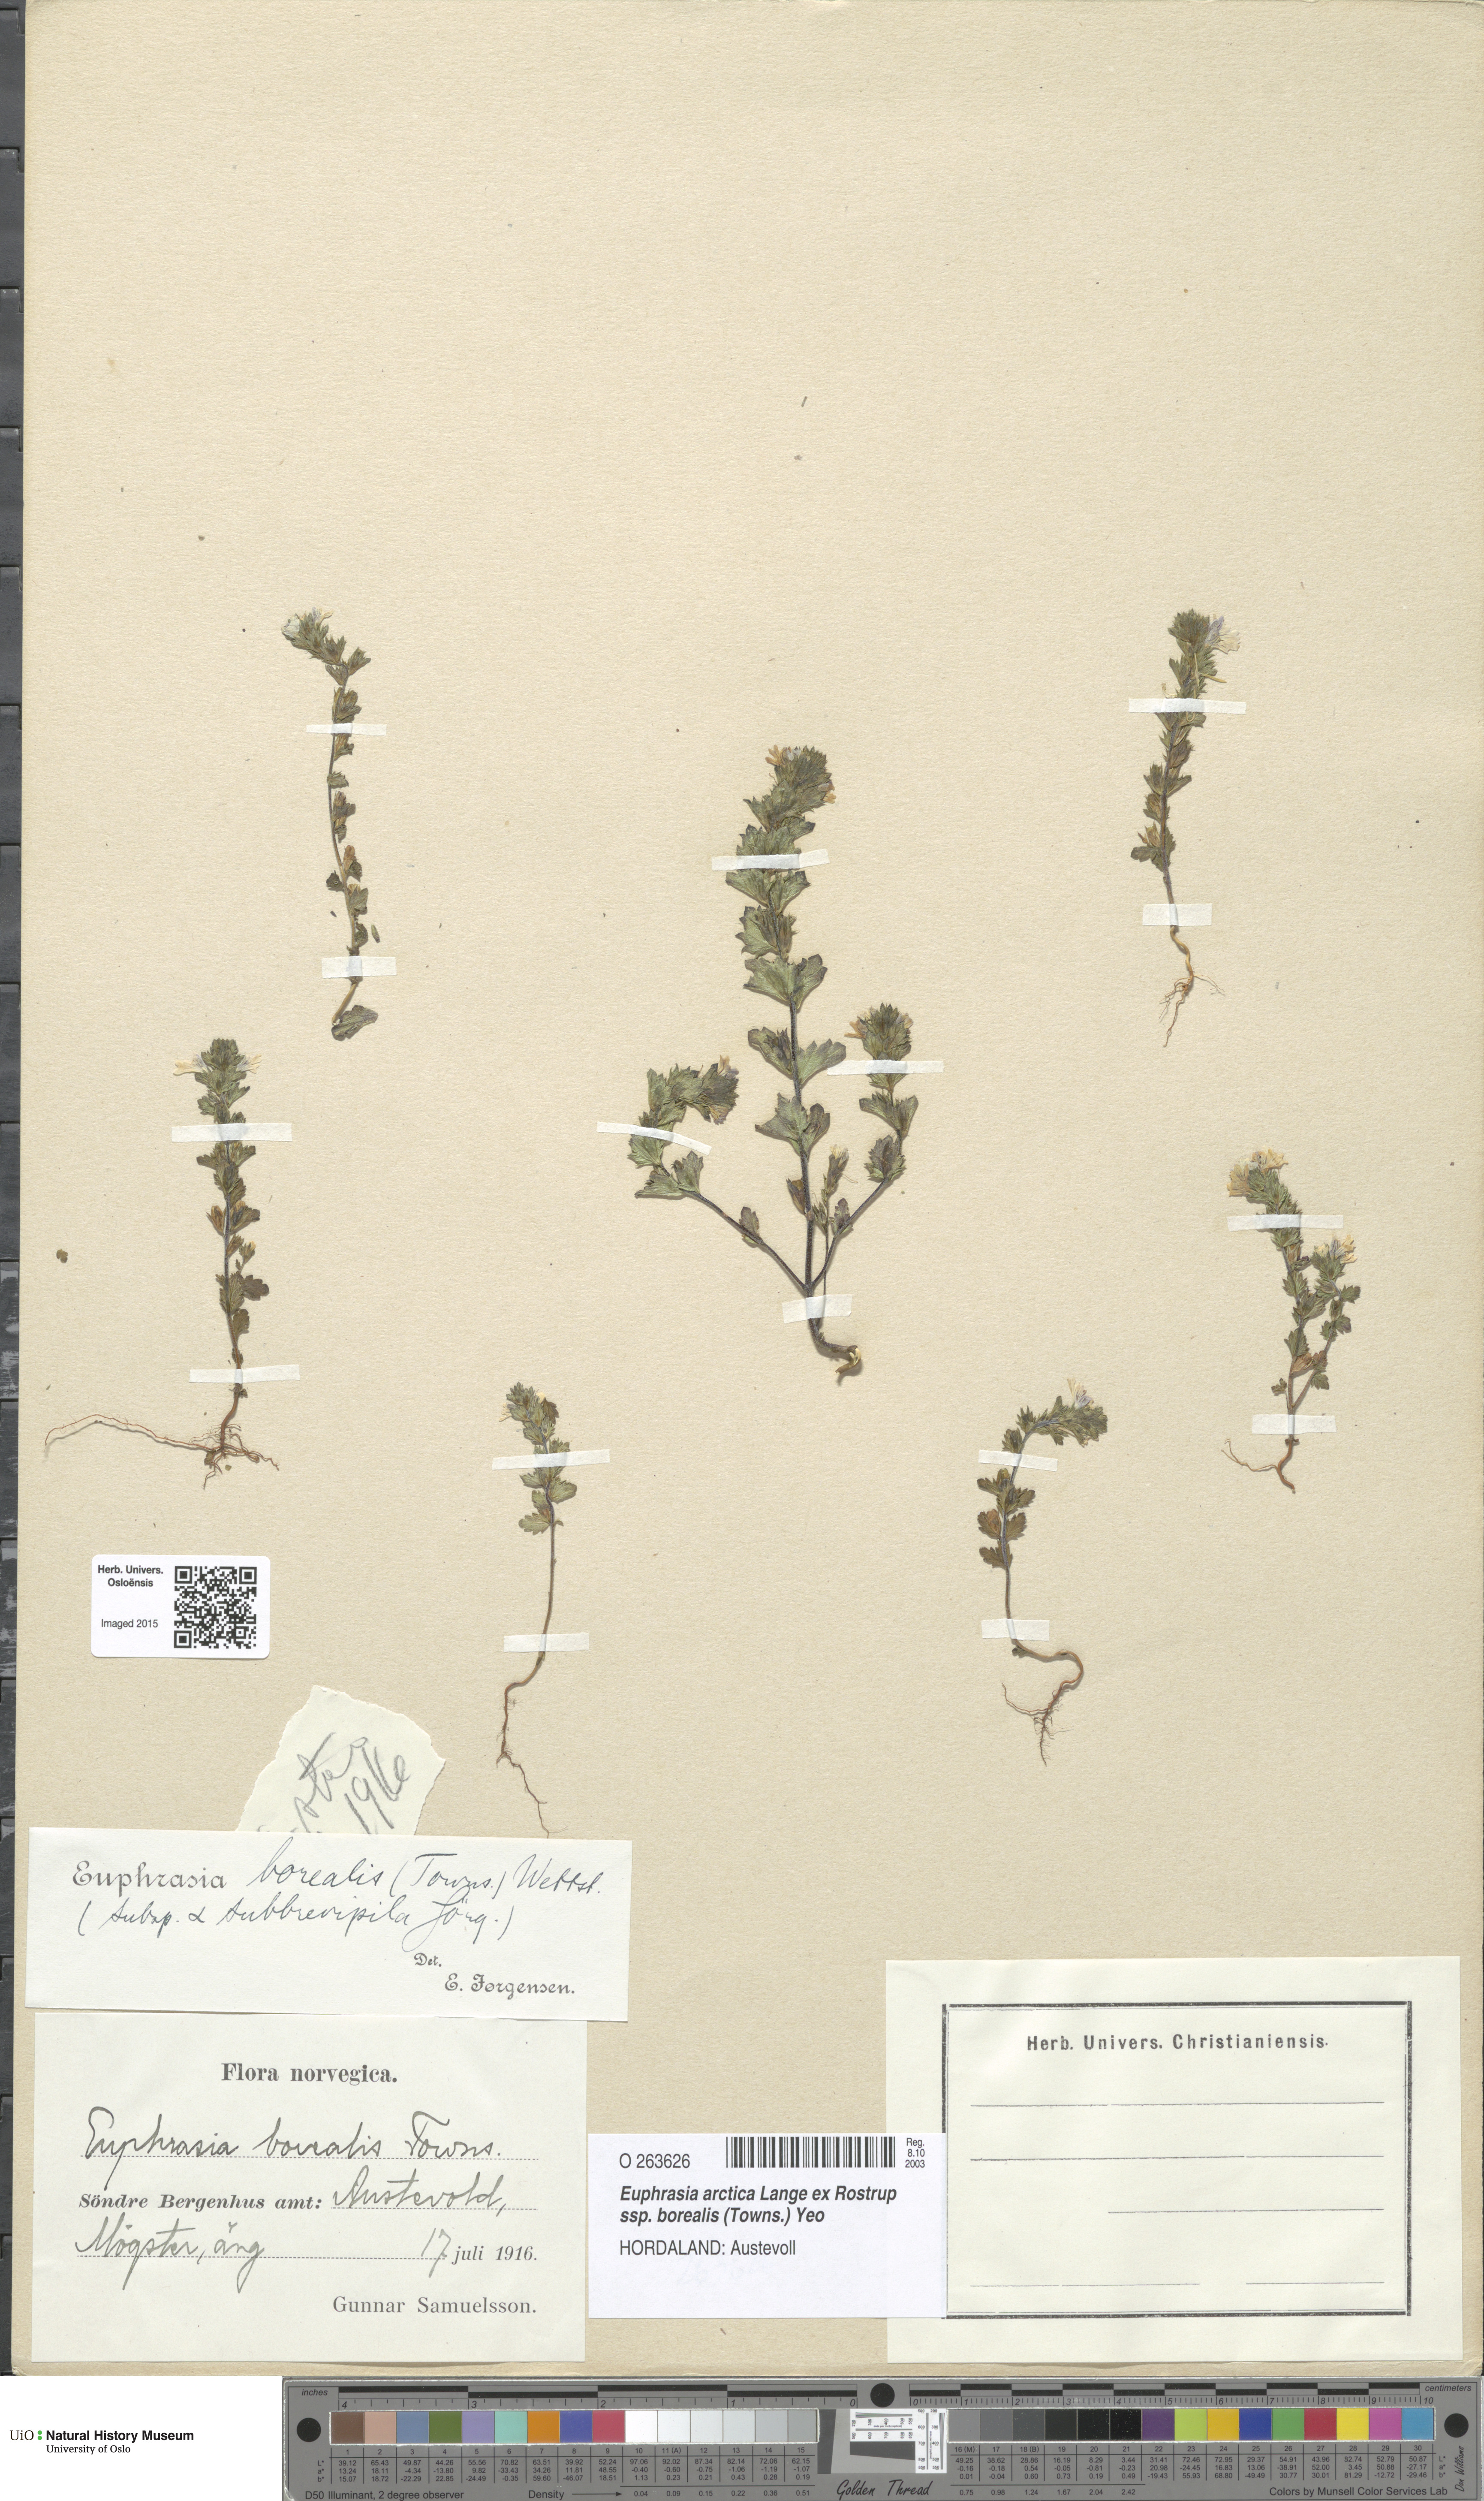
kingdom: Plantae
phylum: Tracheophyta
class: Magnoliopsida
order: Lamiales
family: Orobanchaceae
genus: Euphrasia
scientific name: Euphrasia arctica
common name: An eyebright
